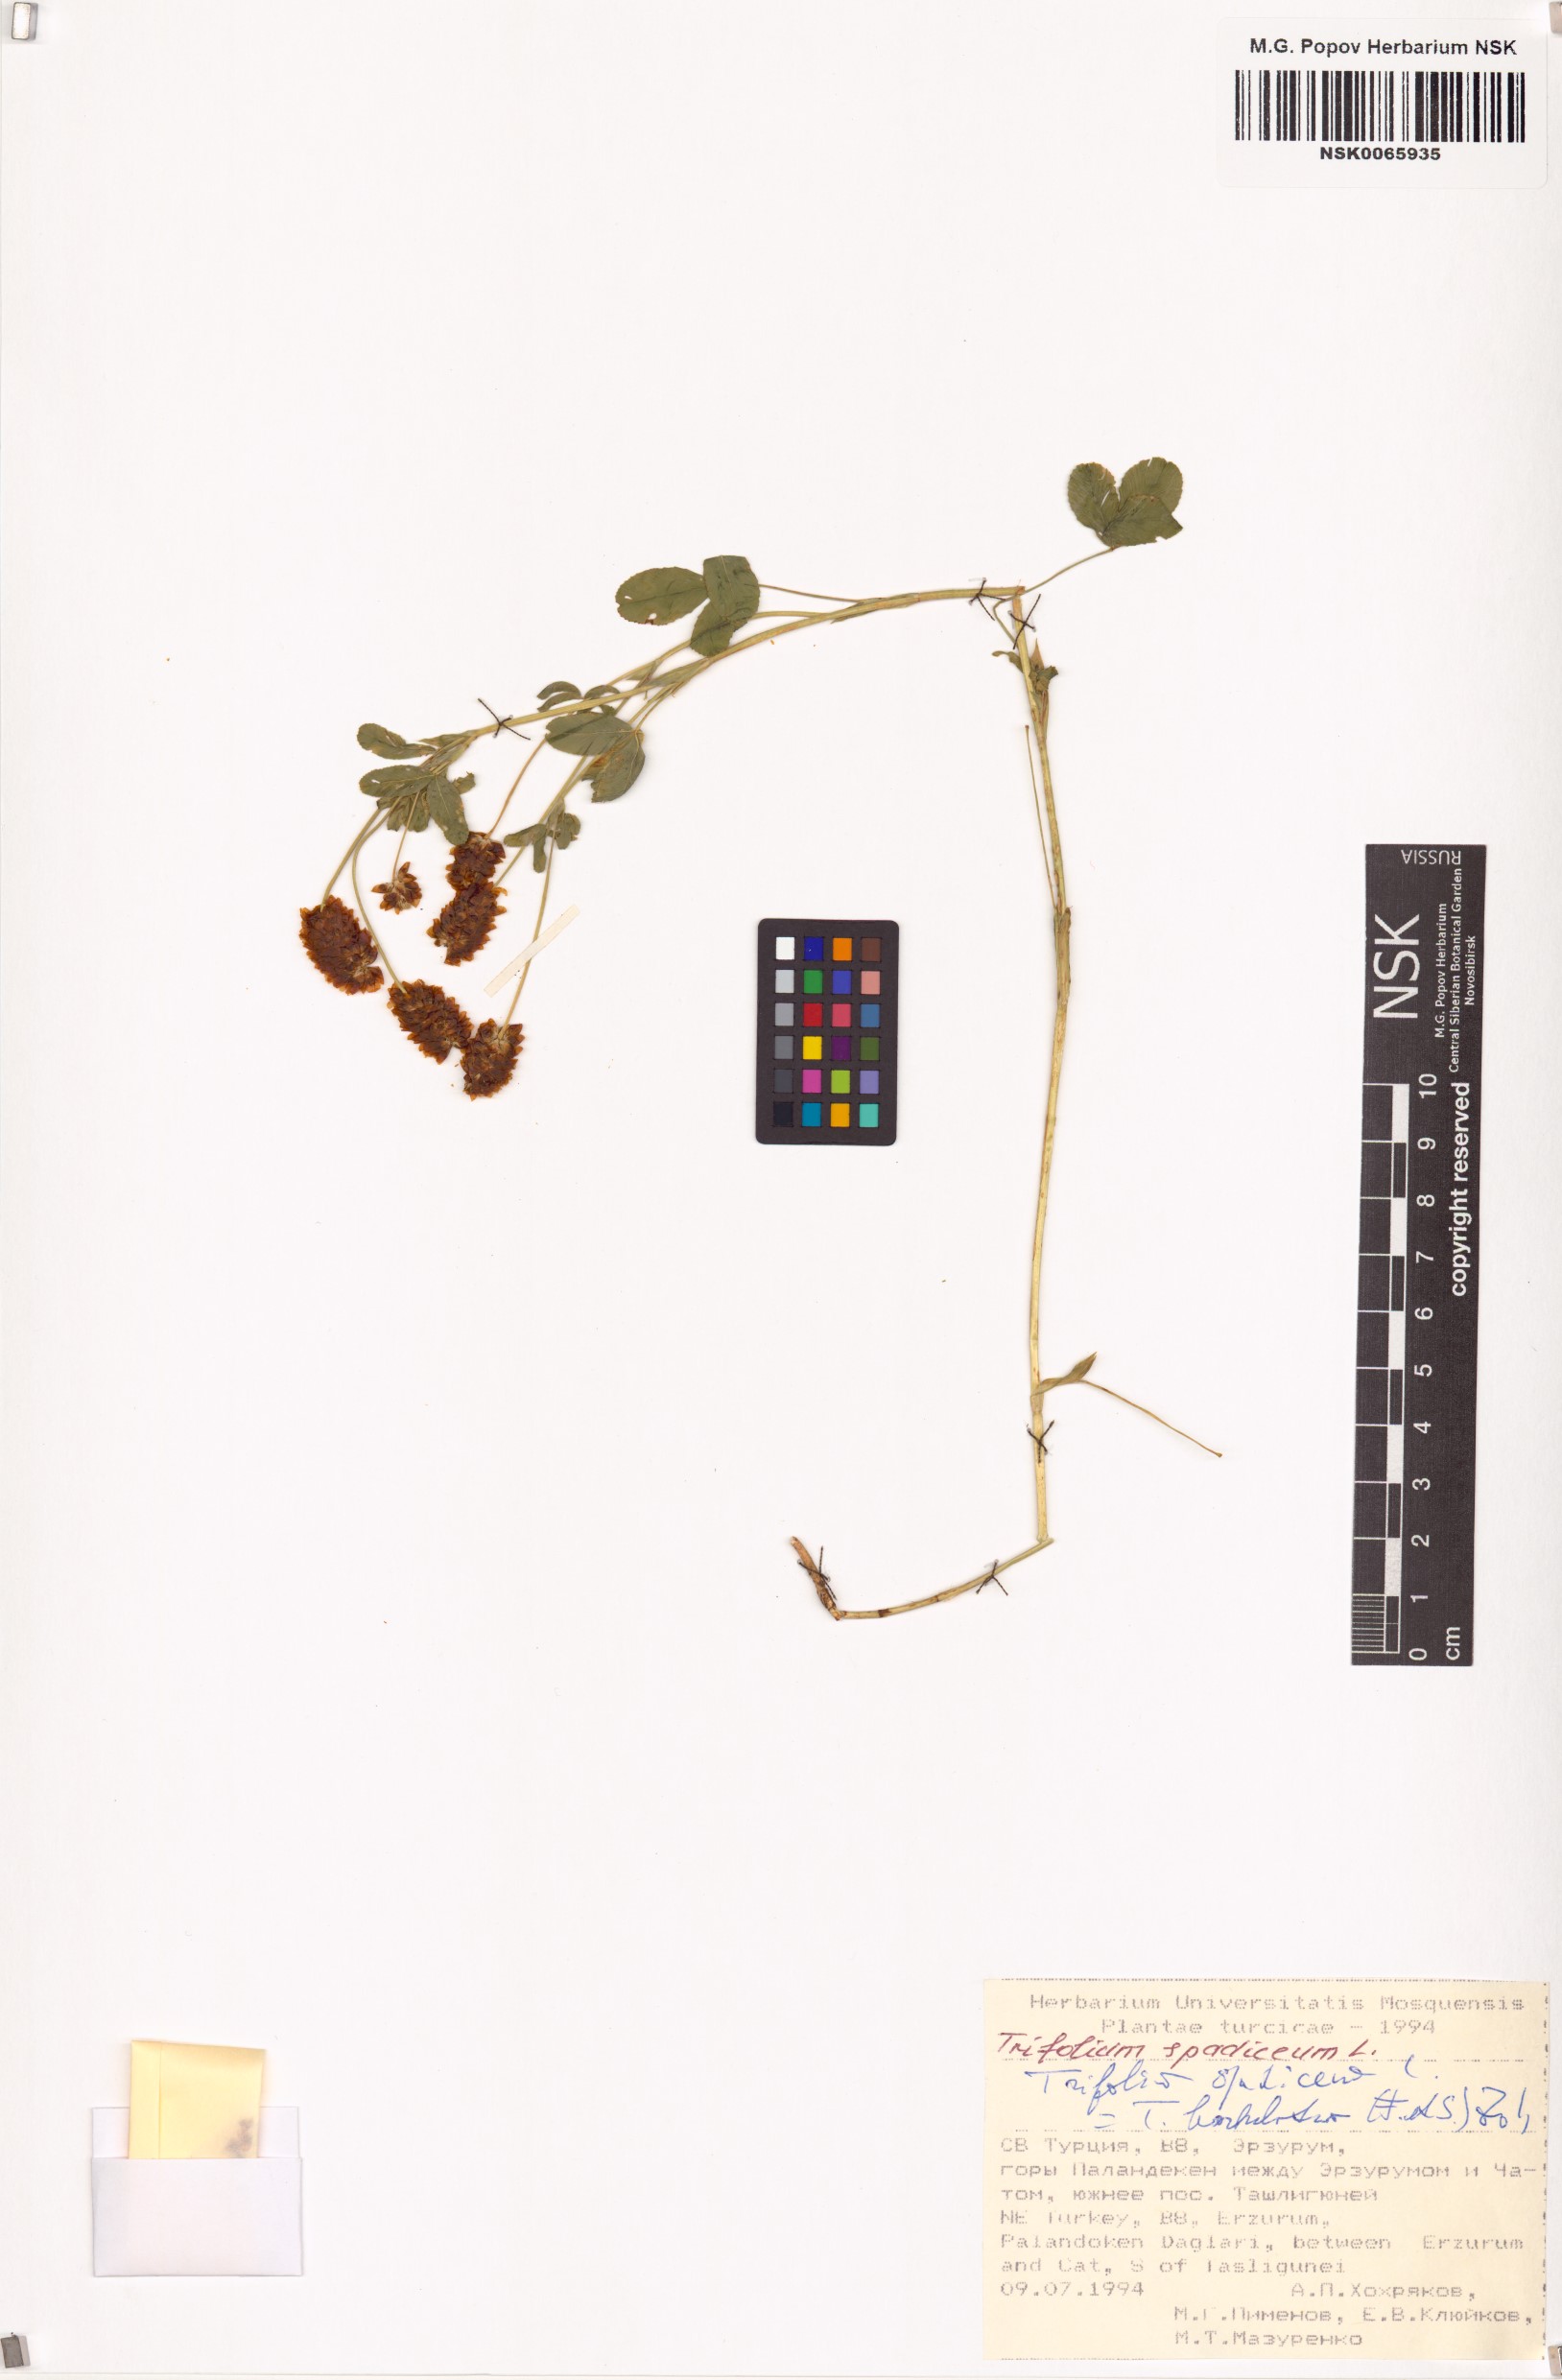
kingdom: Plantae
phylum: Tracheophyta
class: Magnoliopsida
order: Fabales
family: Fabaceae
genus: Trifolium
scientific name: Trifolium spadiceum
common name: Brown moor clover
